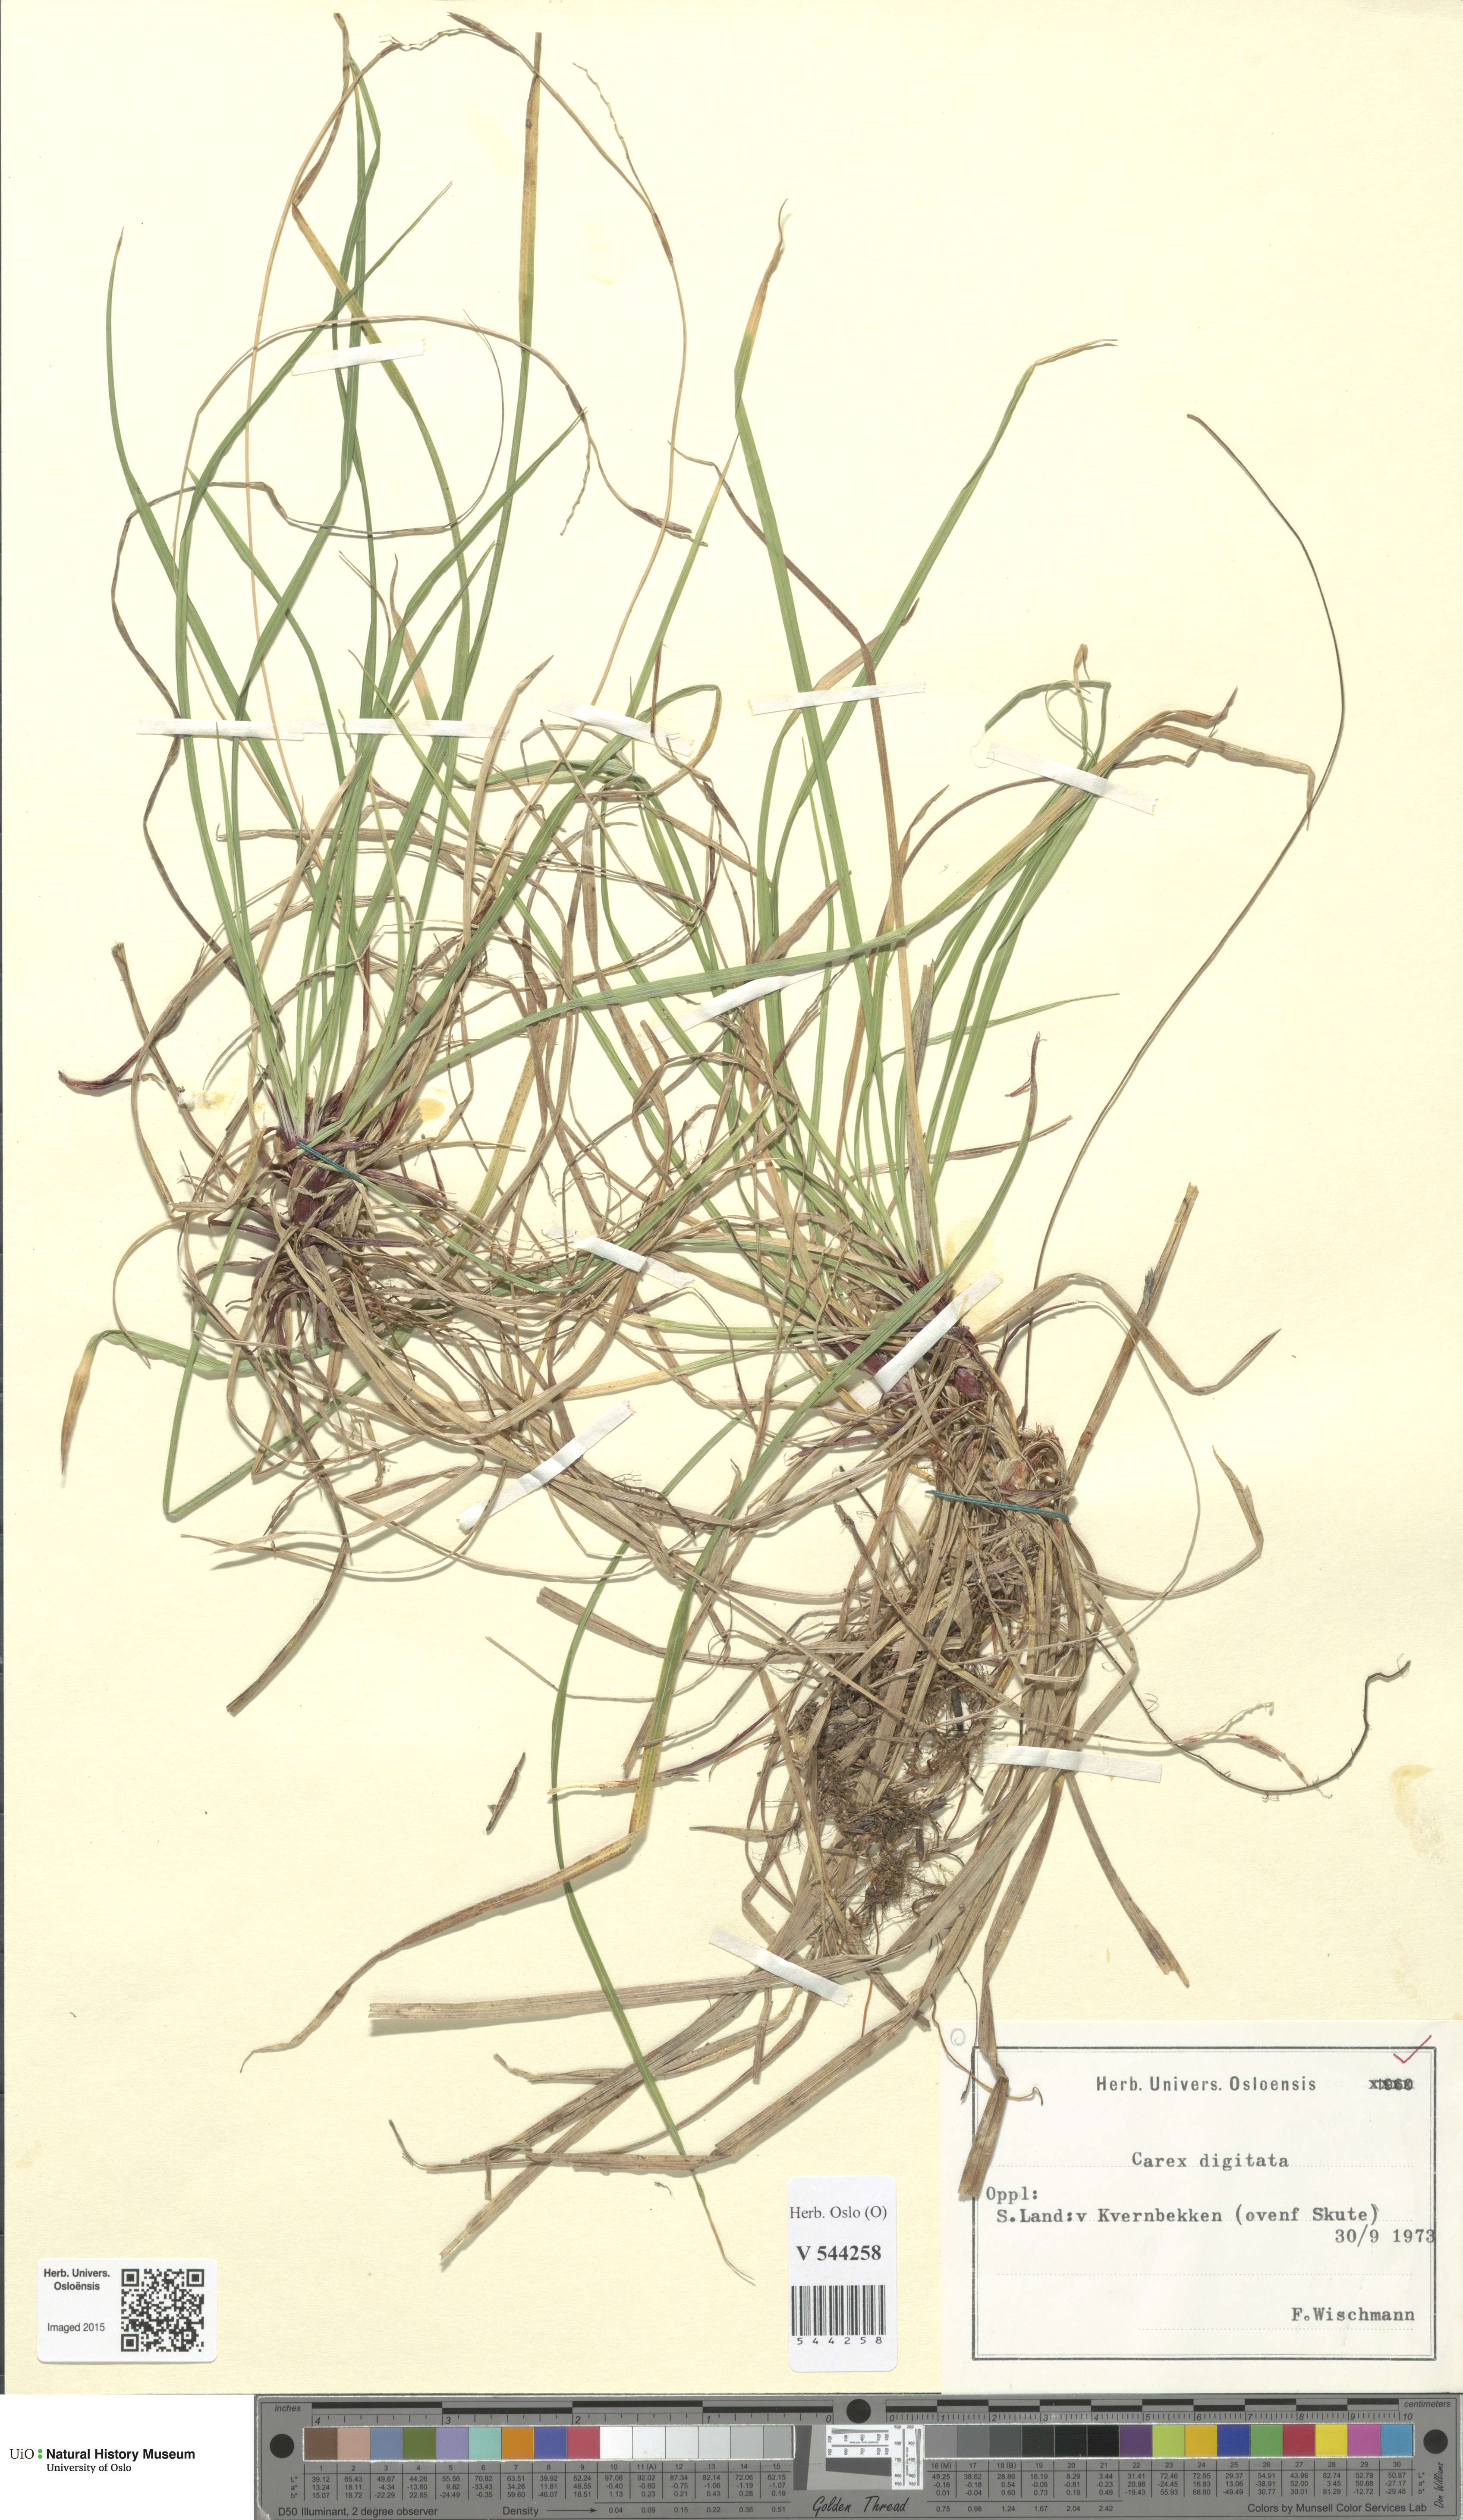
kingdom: Plantae
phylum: Tracheophyta
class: Liliopsida
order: Poales
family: Cyperaceae
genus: Carex
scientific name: Carex digitata
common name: Fingered sedge
